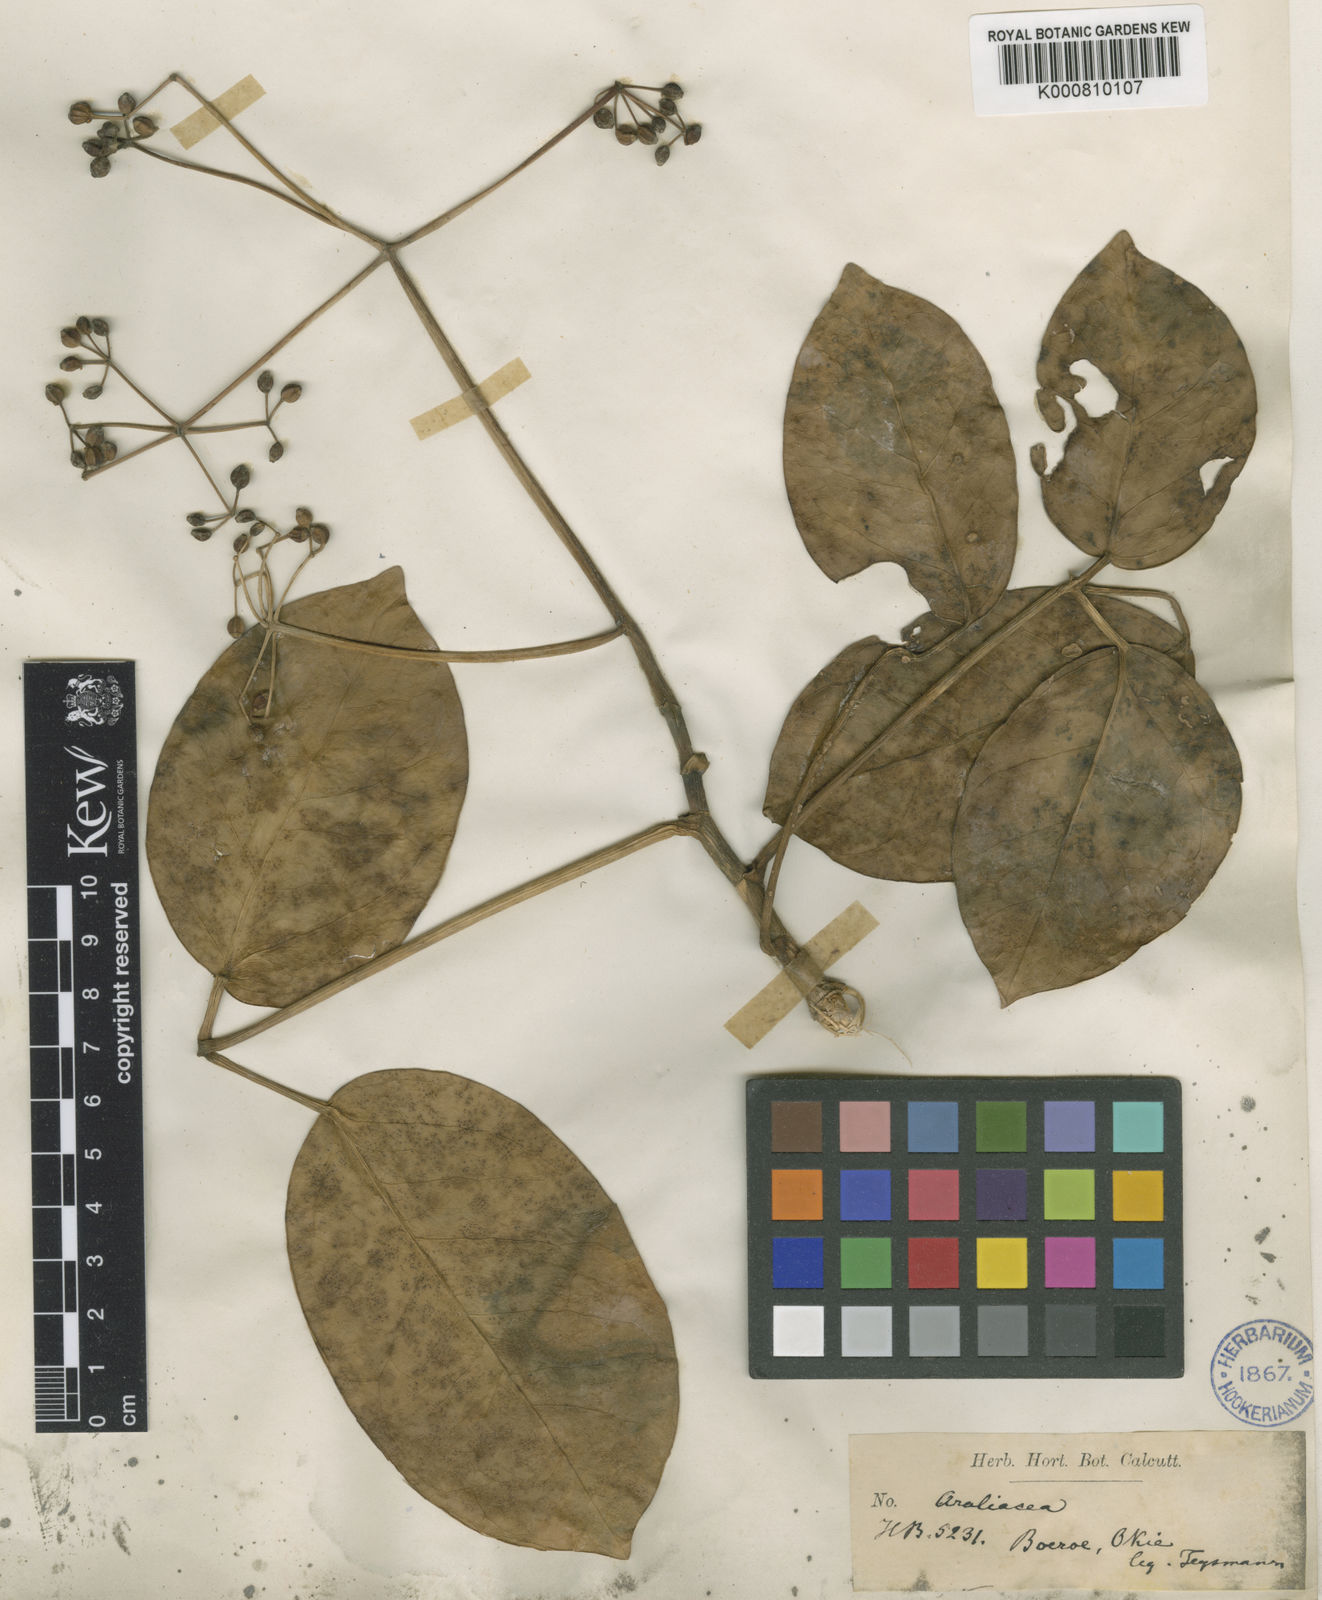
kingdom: Plantae
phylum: Tracheophyta
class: Magnoliopsida
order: Apiales
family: Araliaceae
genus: Heptapleurum
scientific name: Heptapleurum ellipticum
